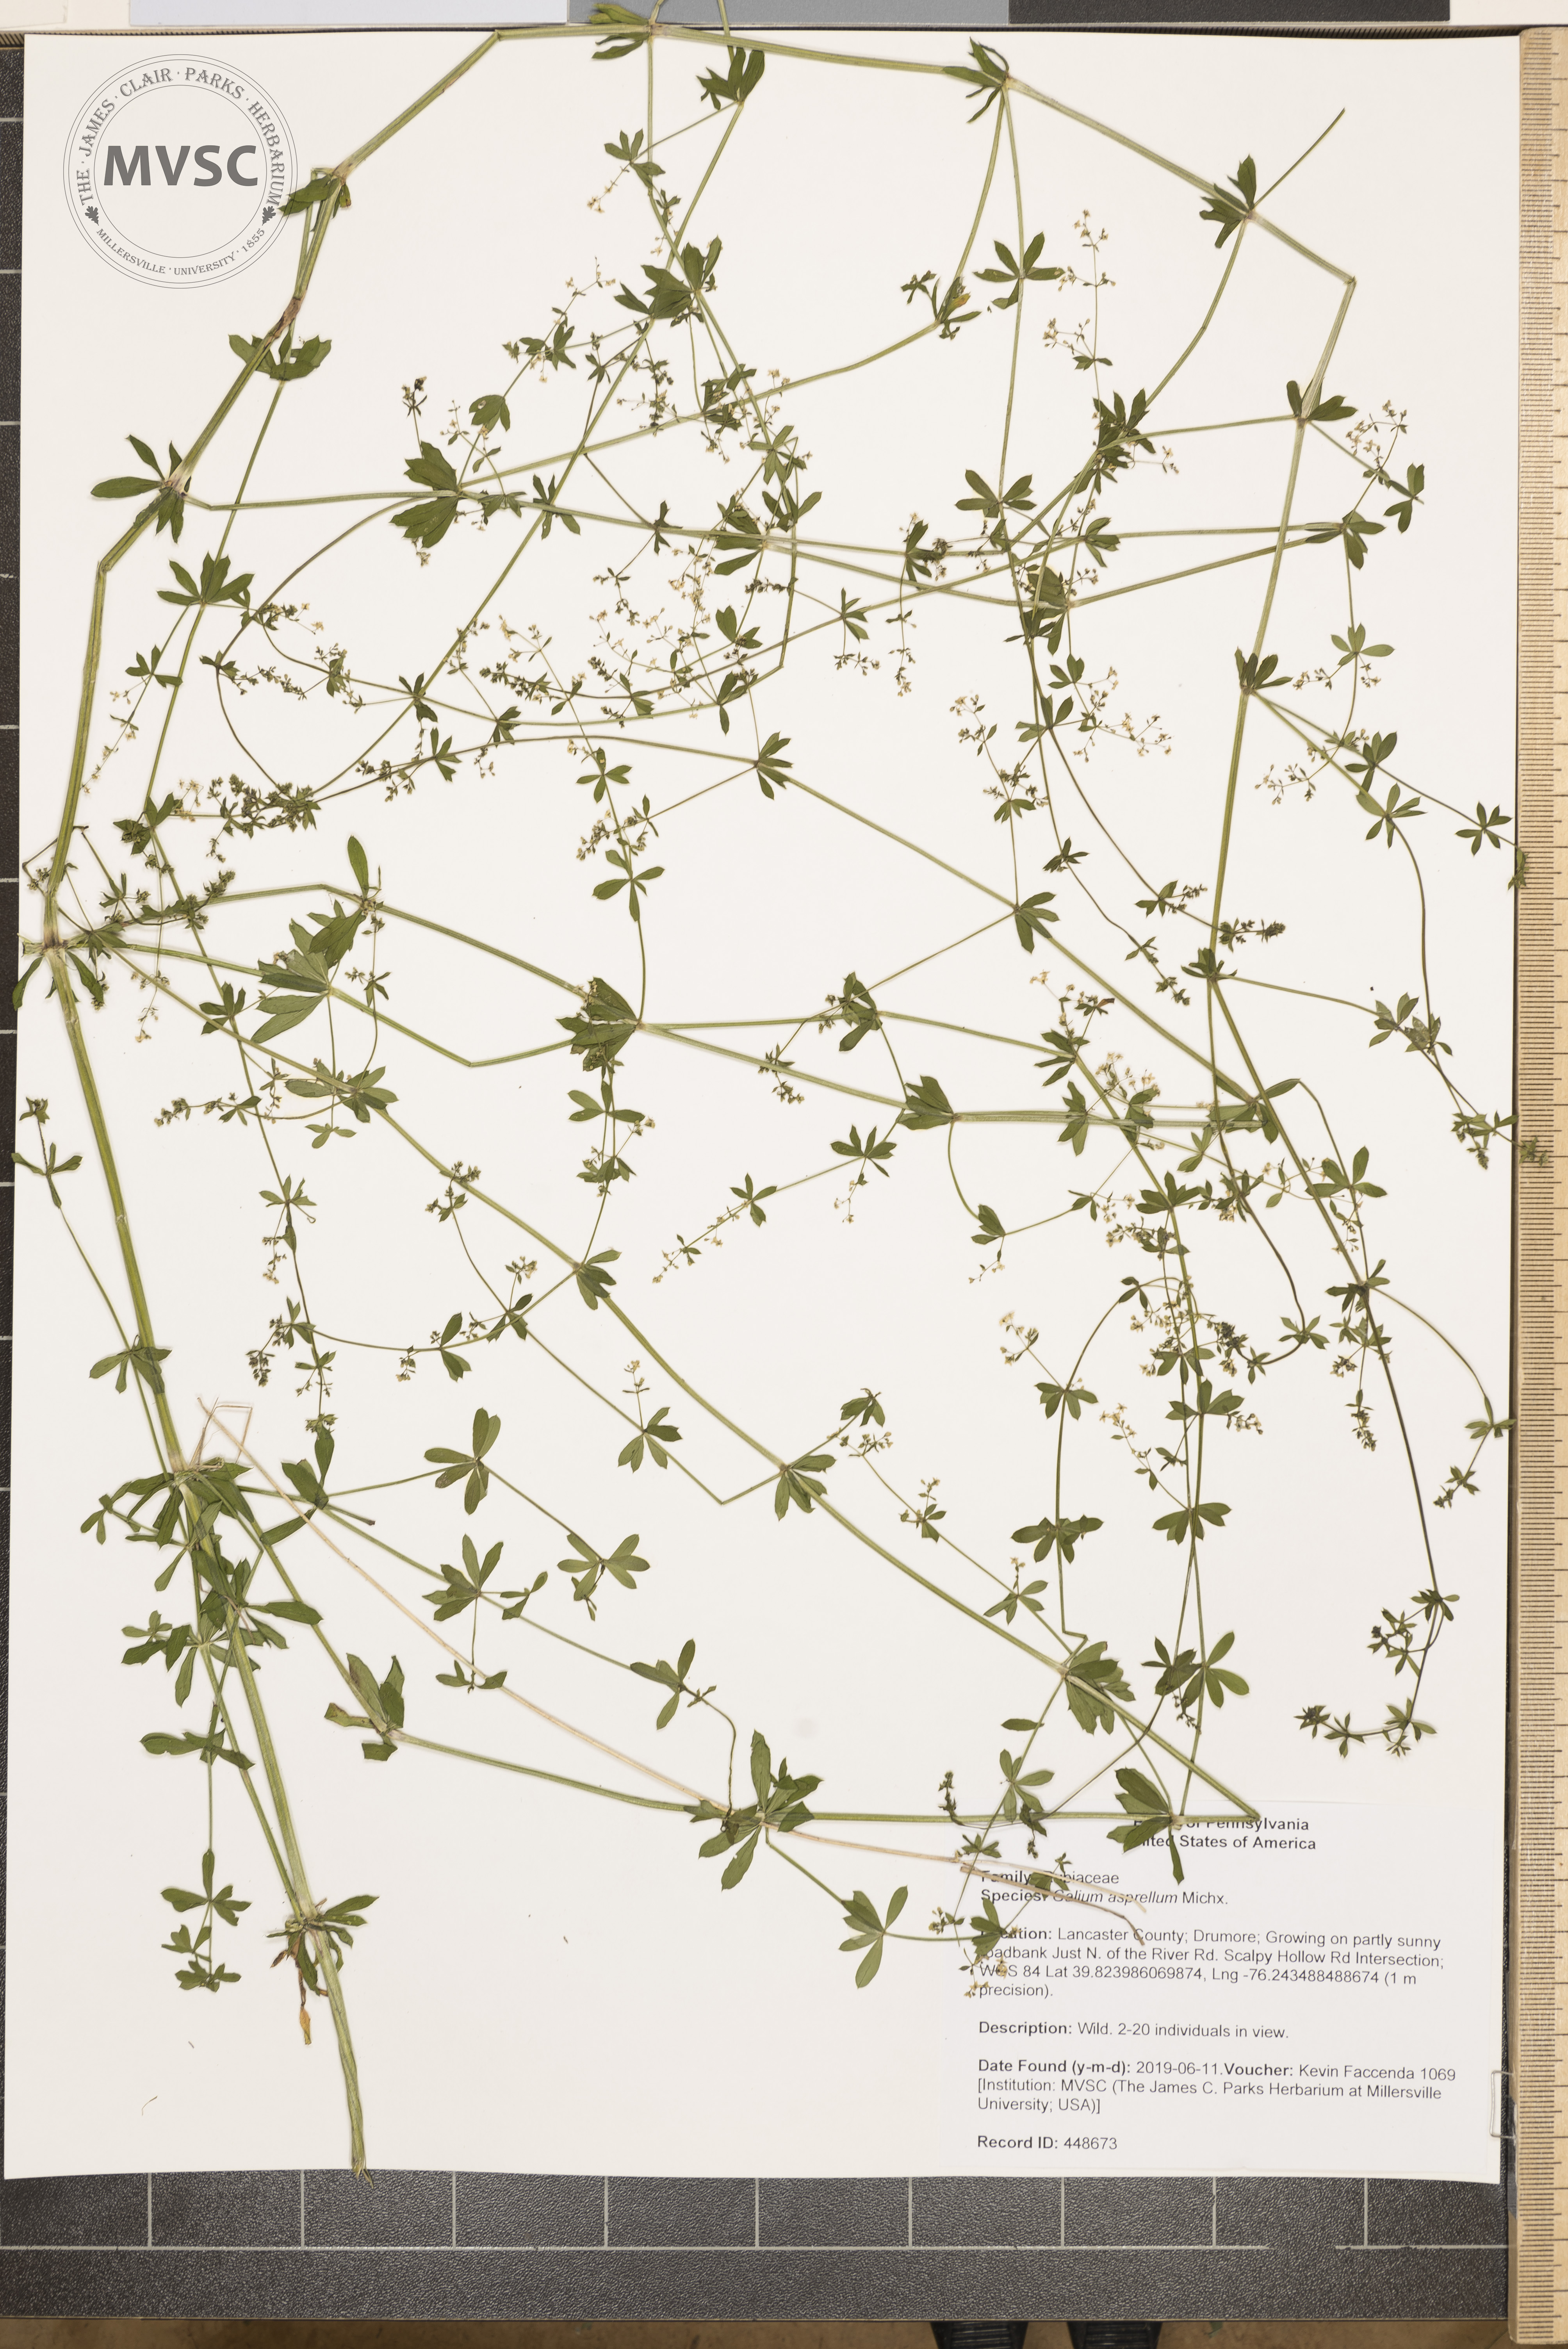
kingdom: Plantae
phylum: Tracheophyta
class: Magnoliopsida
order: Gentianales
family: Rubiaceae
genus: Galium
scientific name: Galium asprellum
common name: Rough bedstraw
